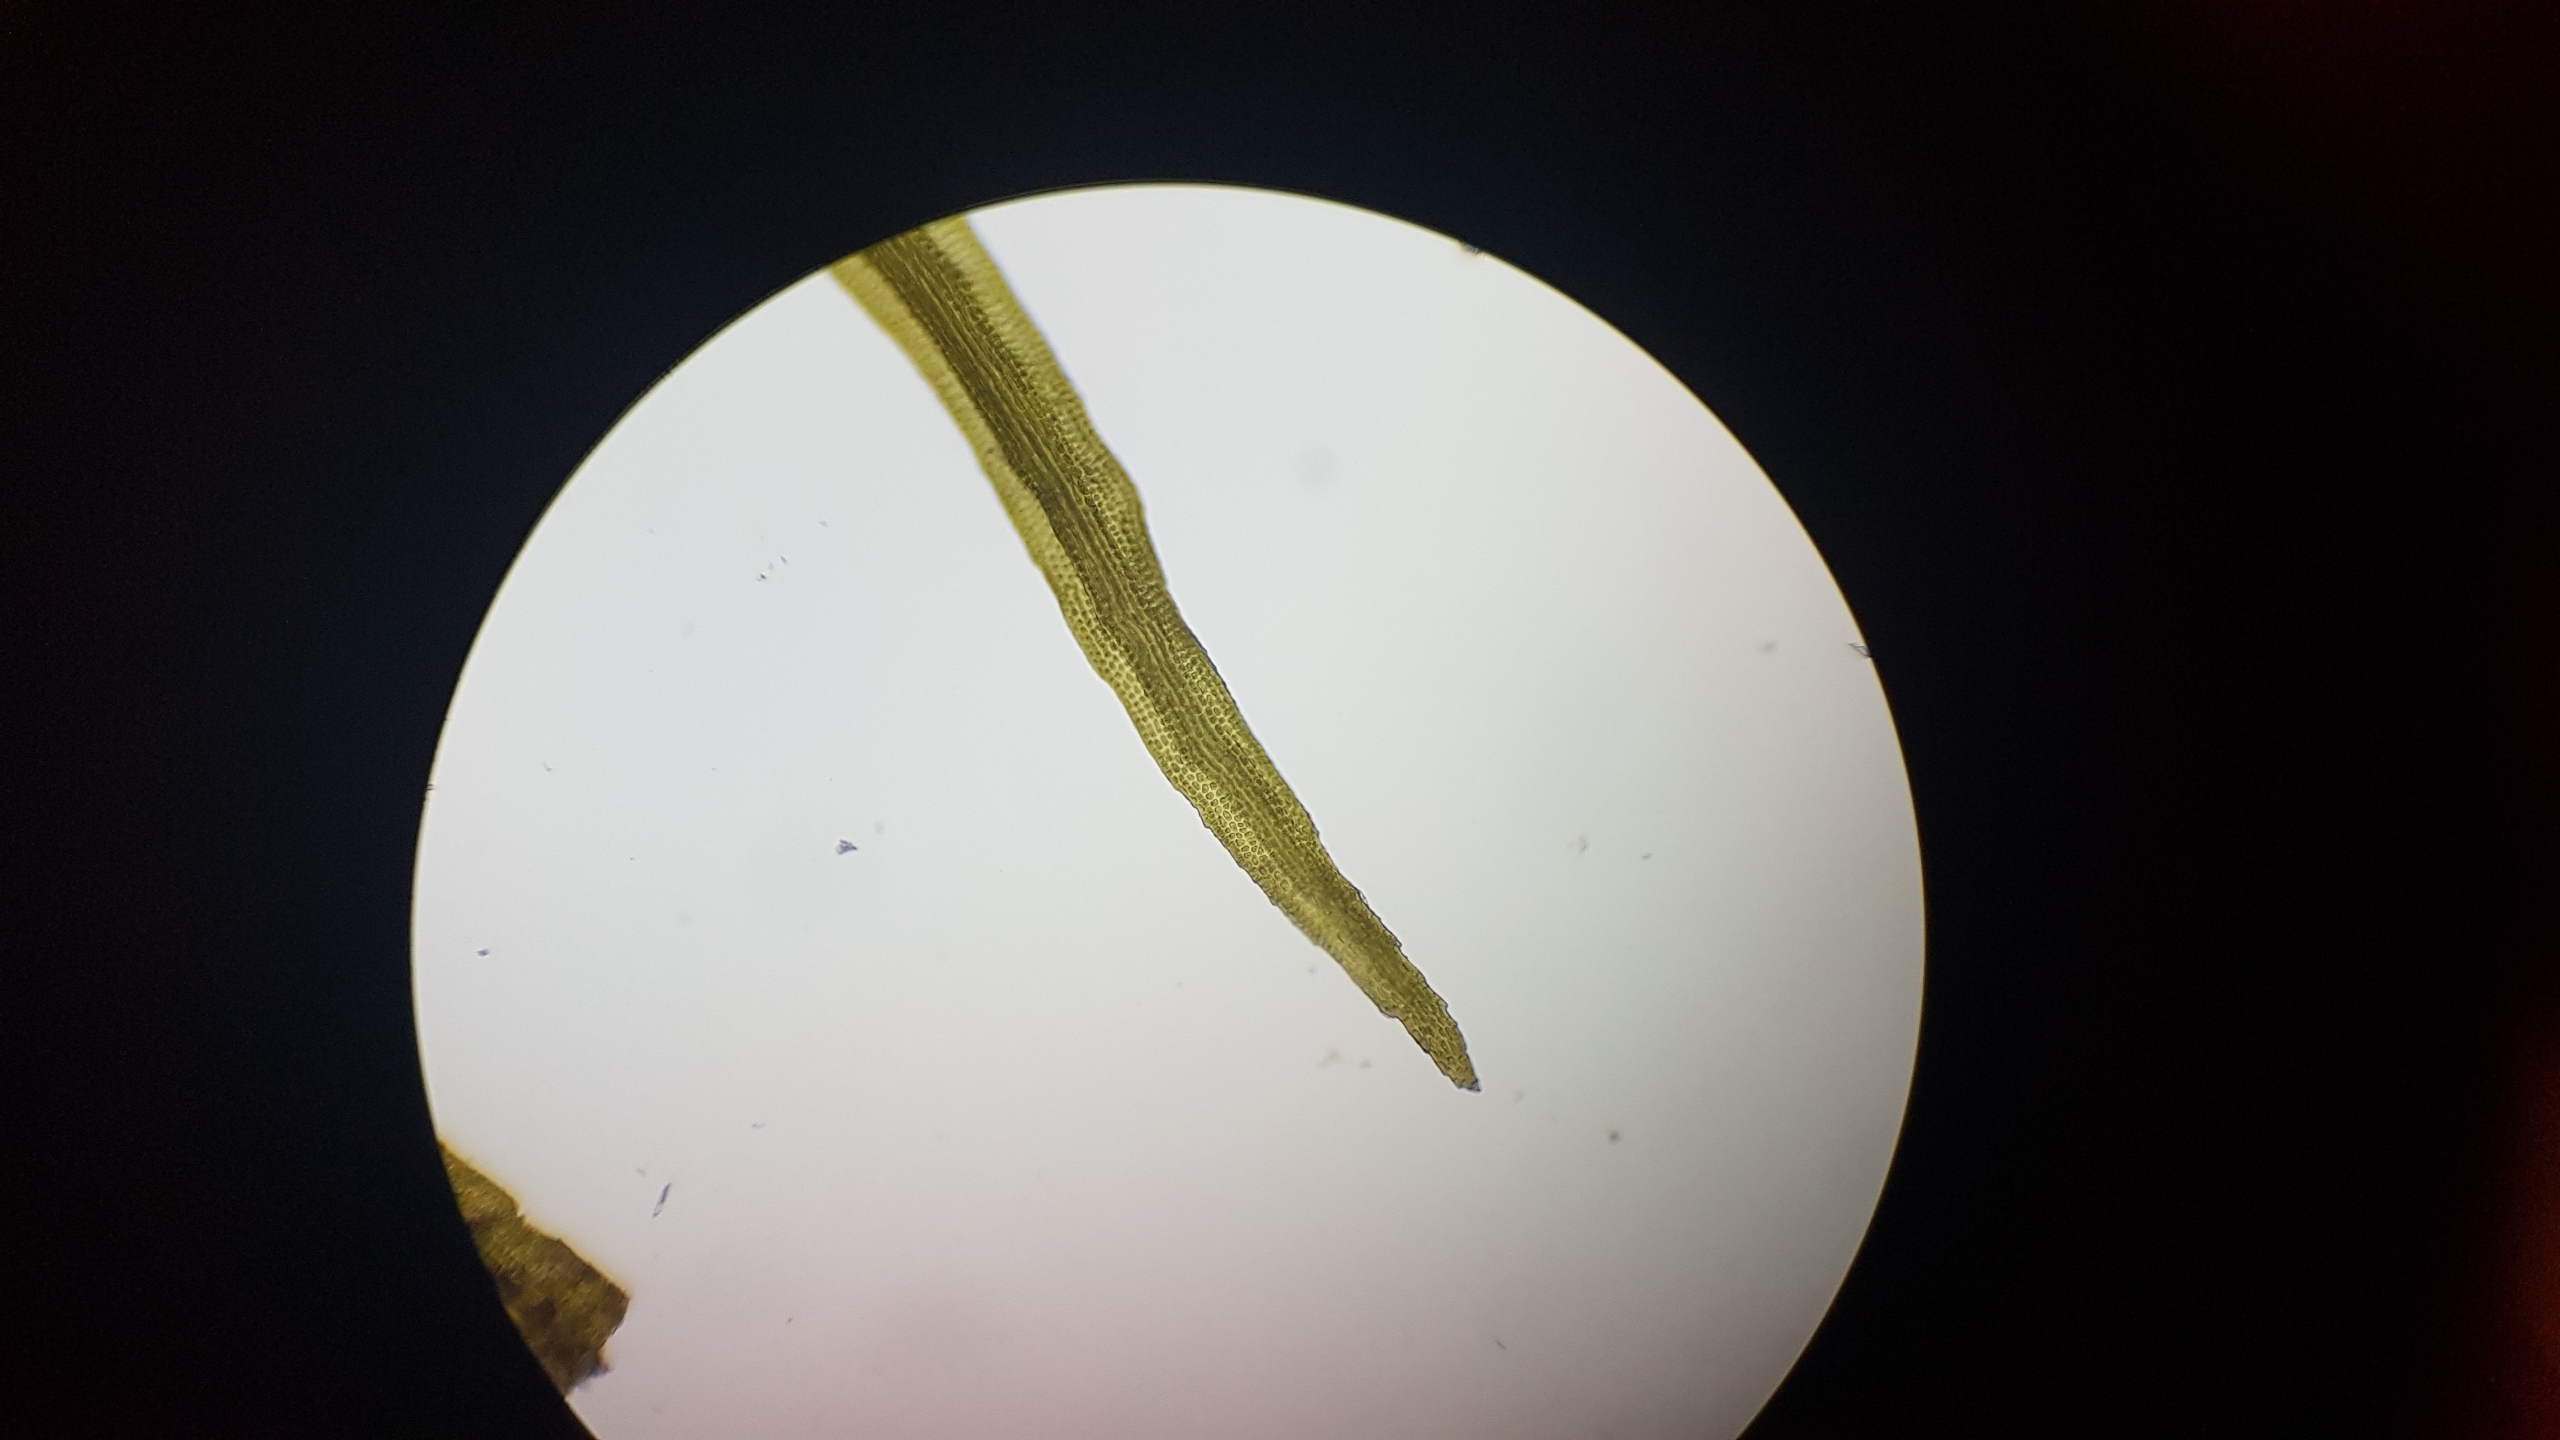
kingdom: Plantae
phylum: Bryophyta
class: Bryopsida
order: Dicranales
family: Rhabdoweisiaceae
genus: Cynodontium
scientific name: Cynodontium bruntonii
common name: Klippe-smudsmos
